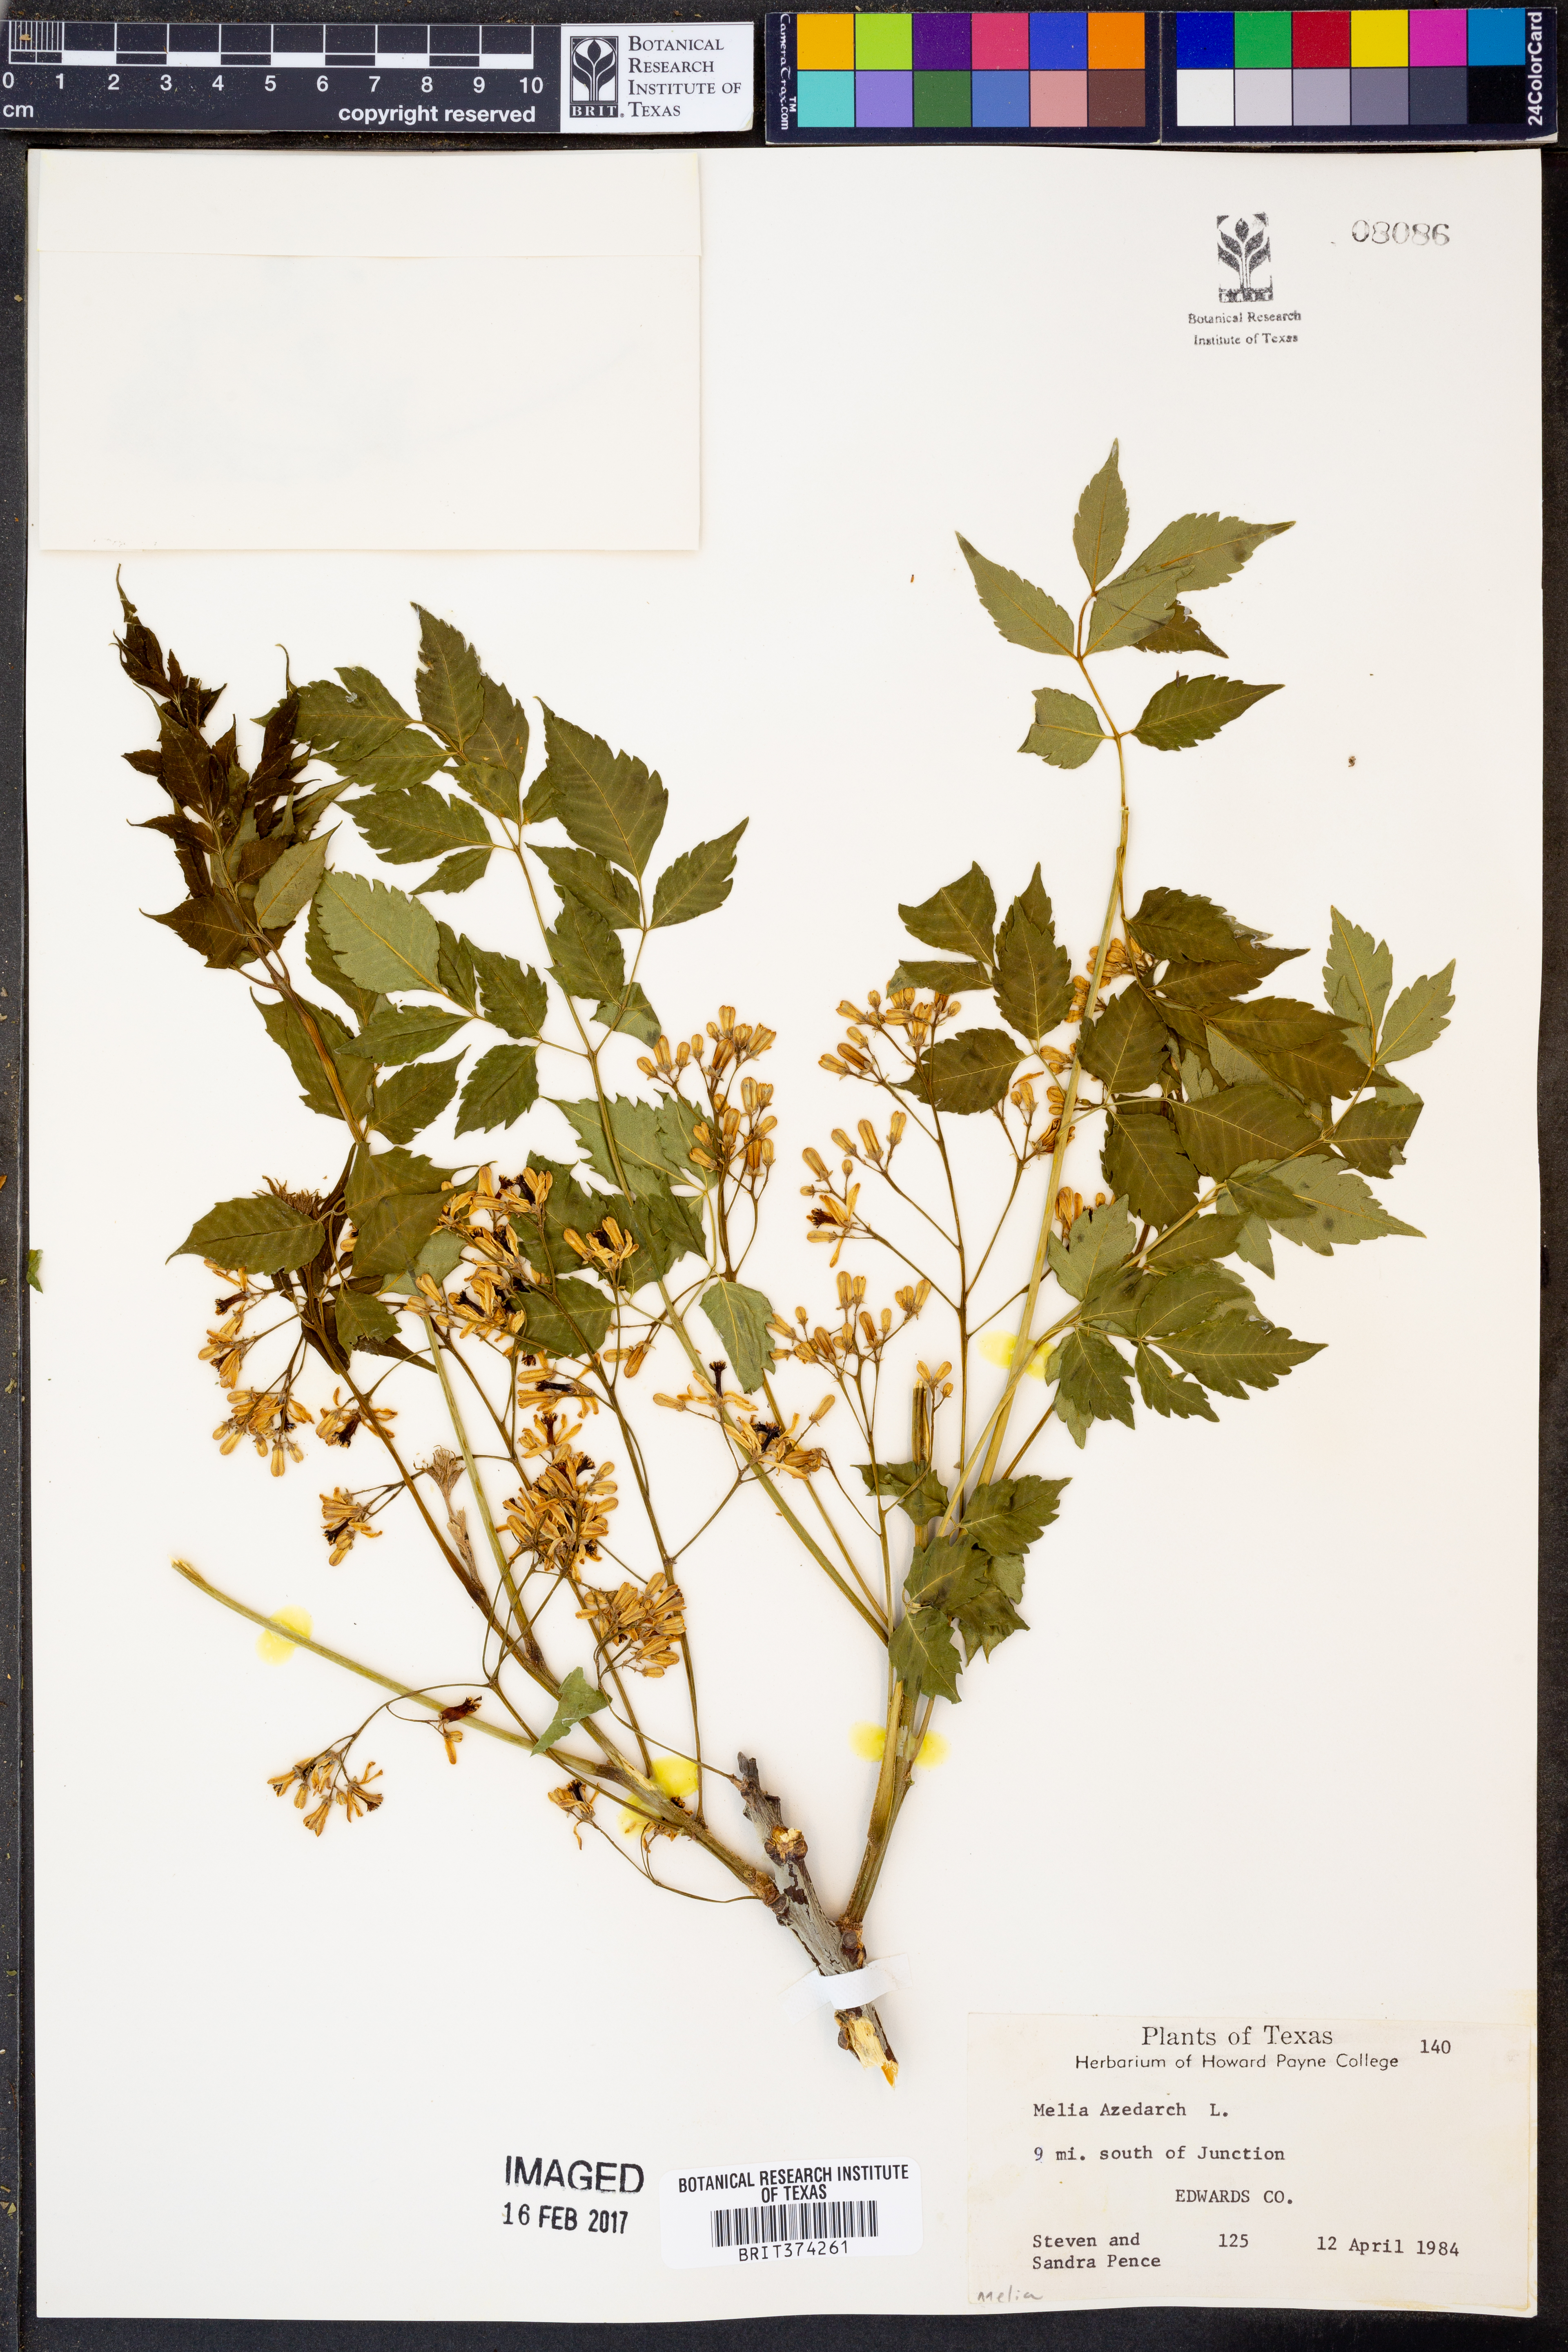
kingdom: Plantae
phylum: Tracheophyta
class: Magnoliopsida
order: Sapindales
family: Meliaceae
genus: Melia
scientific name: Melia azedarach
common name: Chinaberrytree
